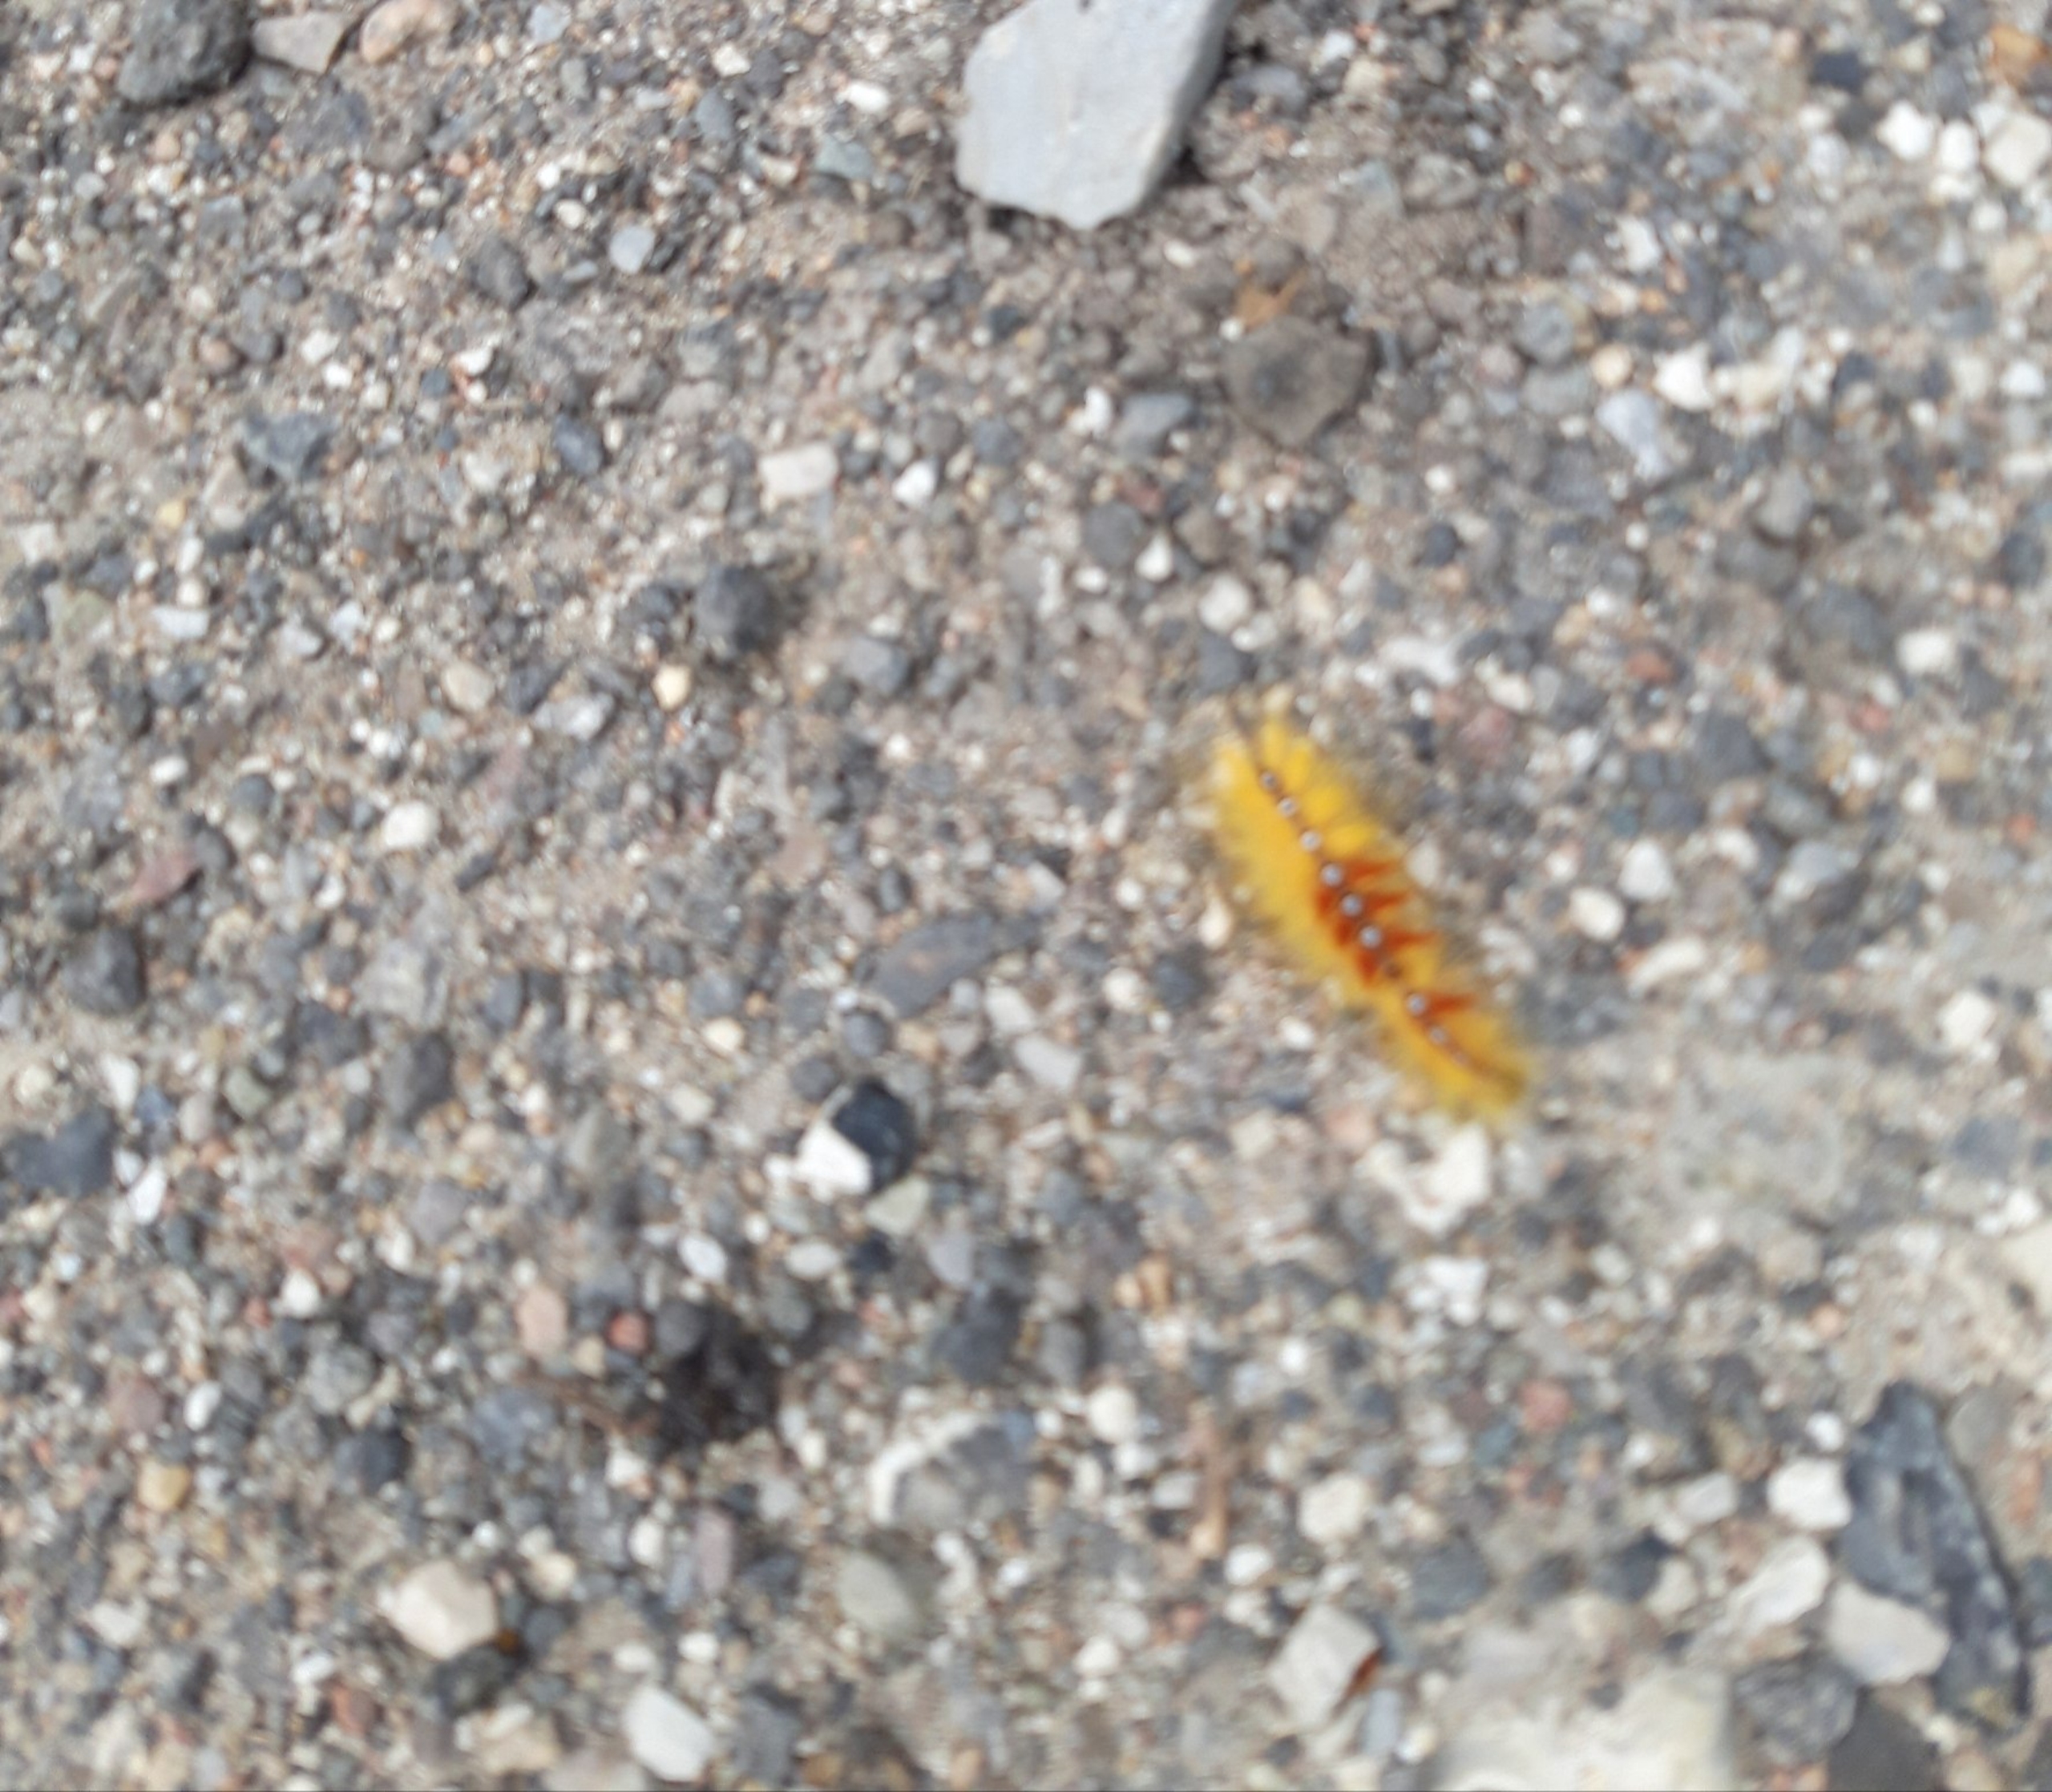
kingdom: Animalia
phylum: Arthropoda
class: Insecta
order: Lepidoptera
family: Noctuidae
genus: Acronicta
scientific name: Acronicta aceris
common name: Ahornugle
